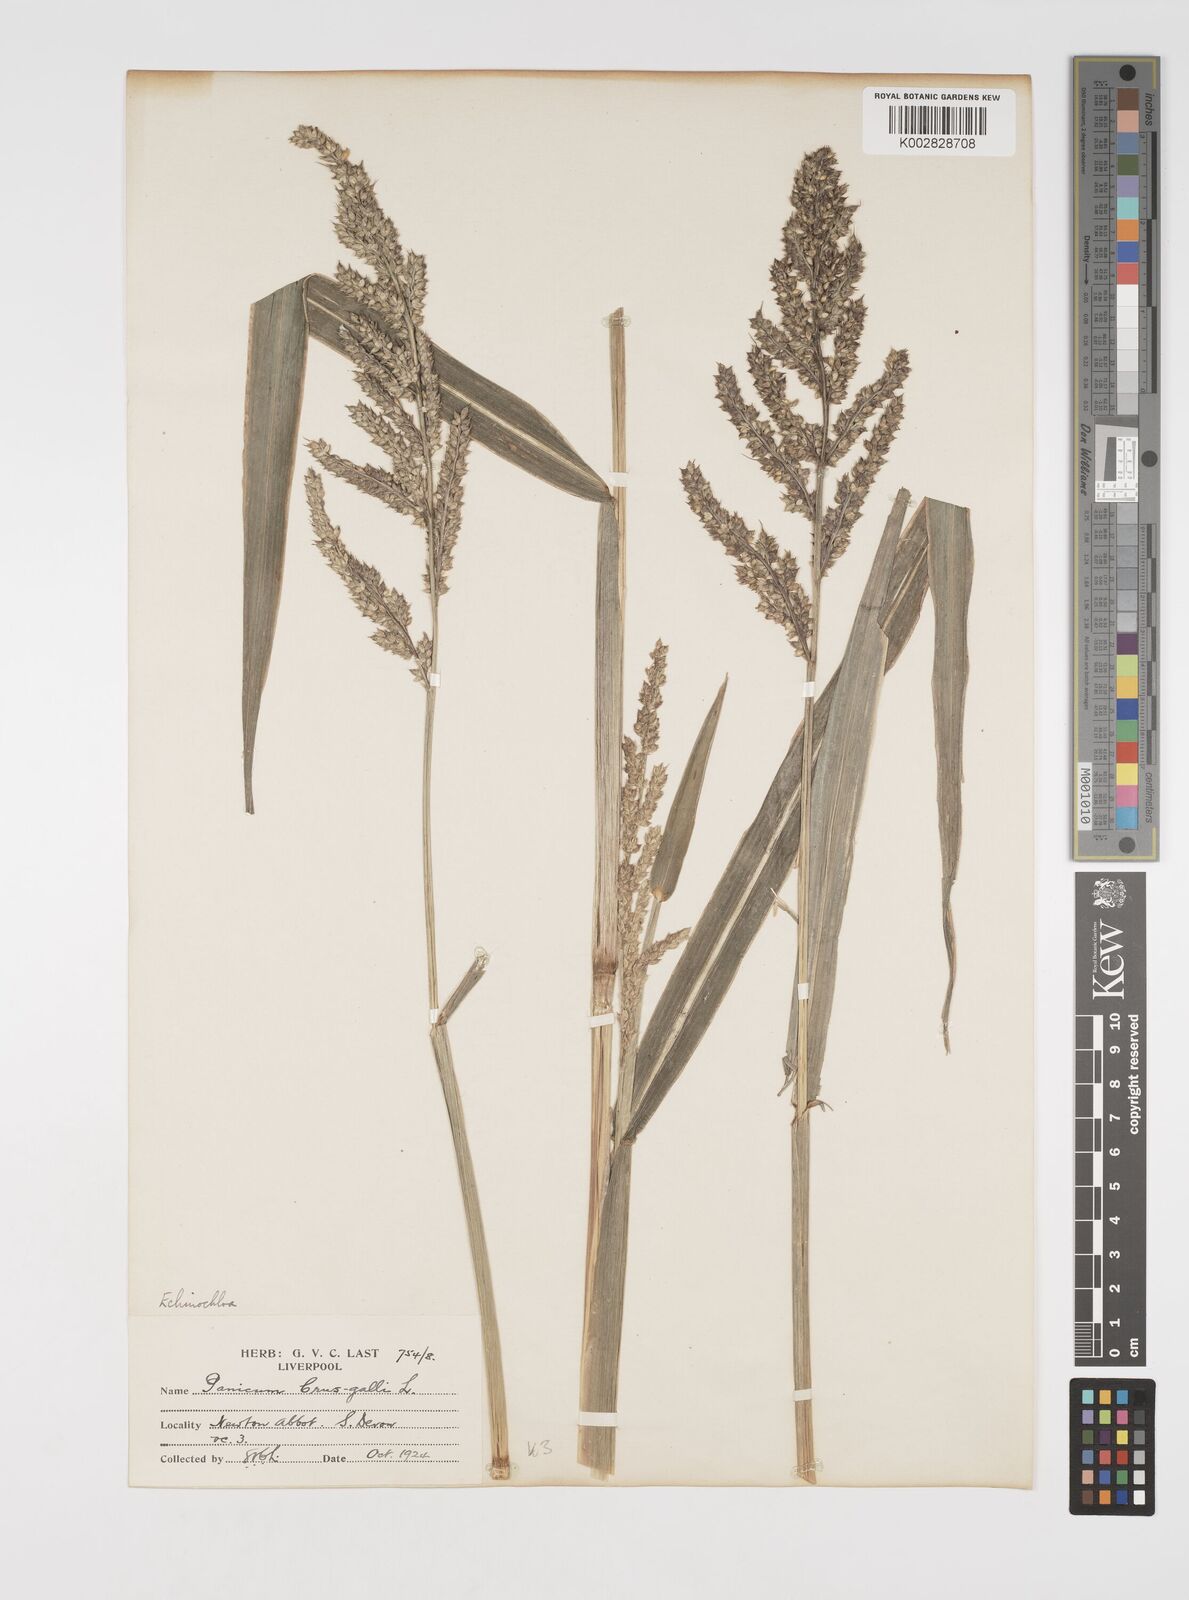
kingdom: Plantae
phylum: Tracheophyta
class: Liliopsida
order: Poales
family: Poaceae
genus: Echinochloa
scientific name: Echinochloa crus-galli
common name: Cockspur
